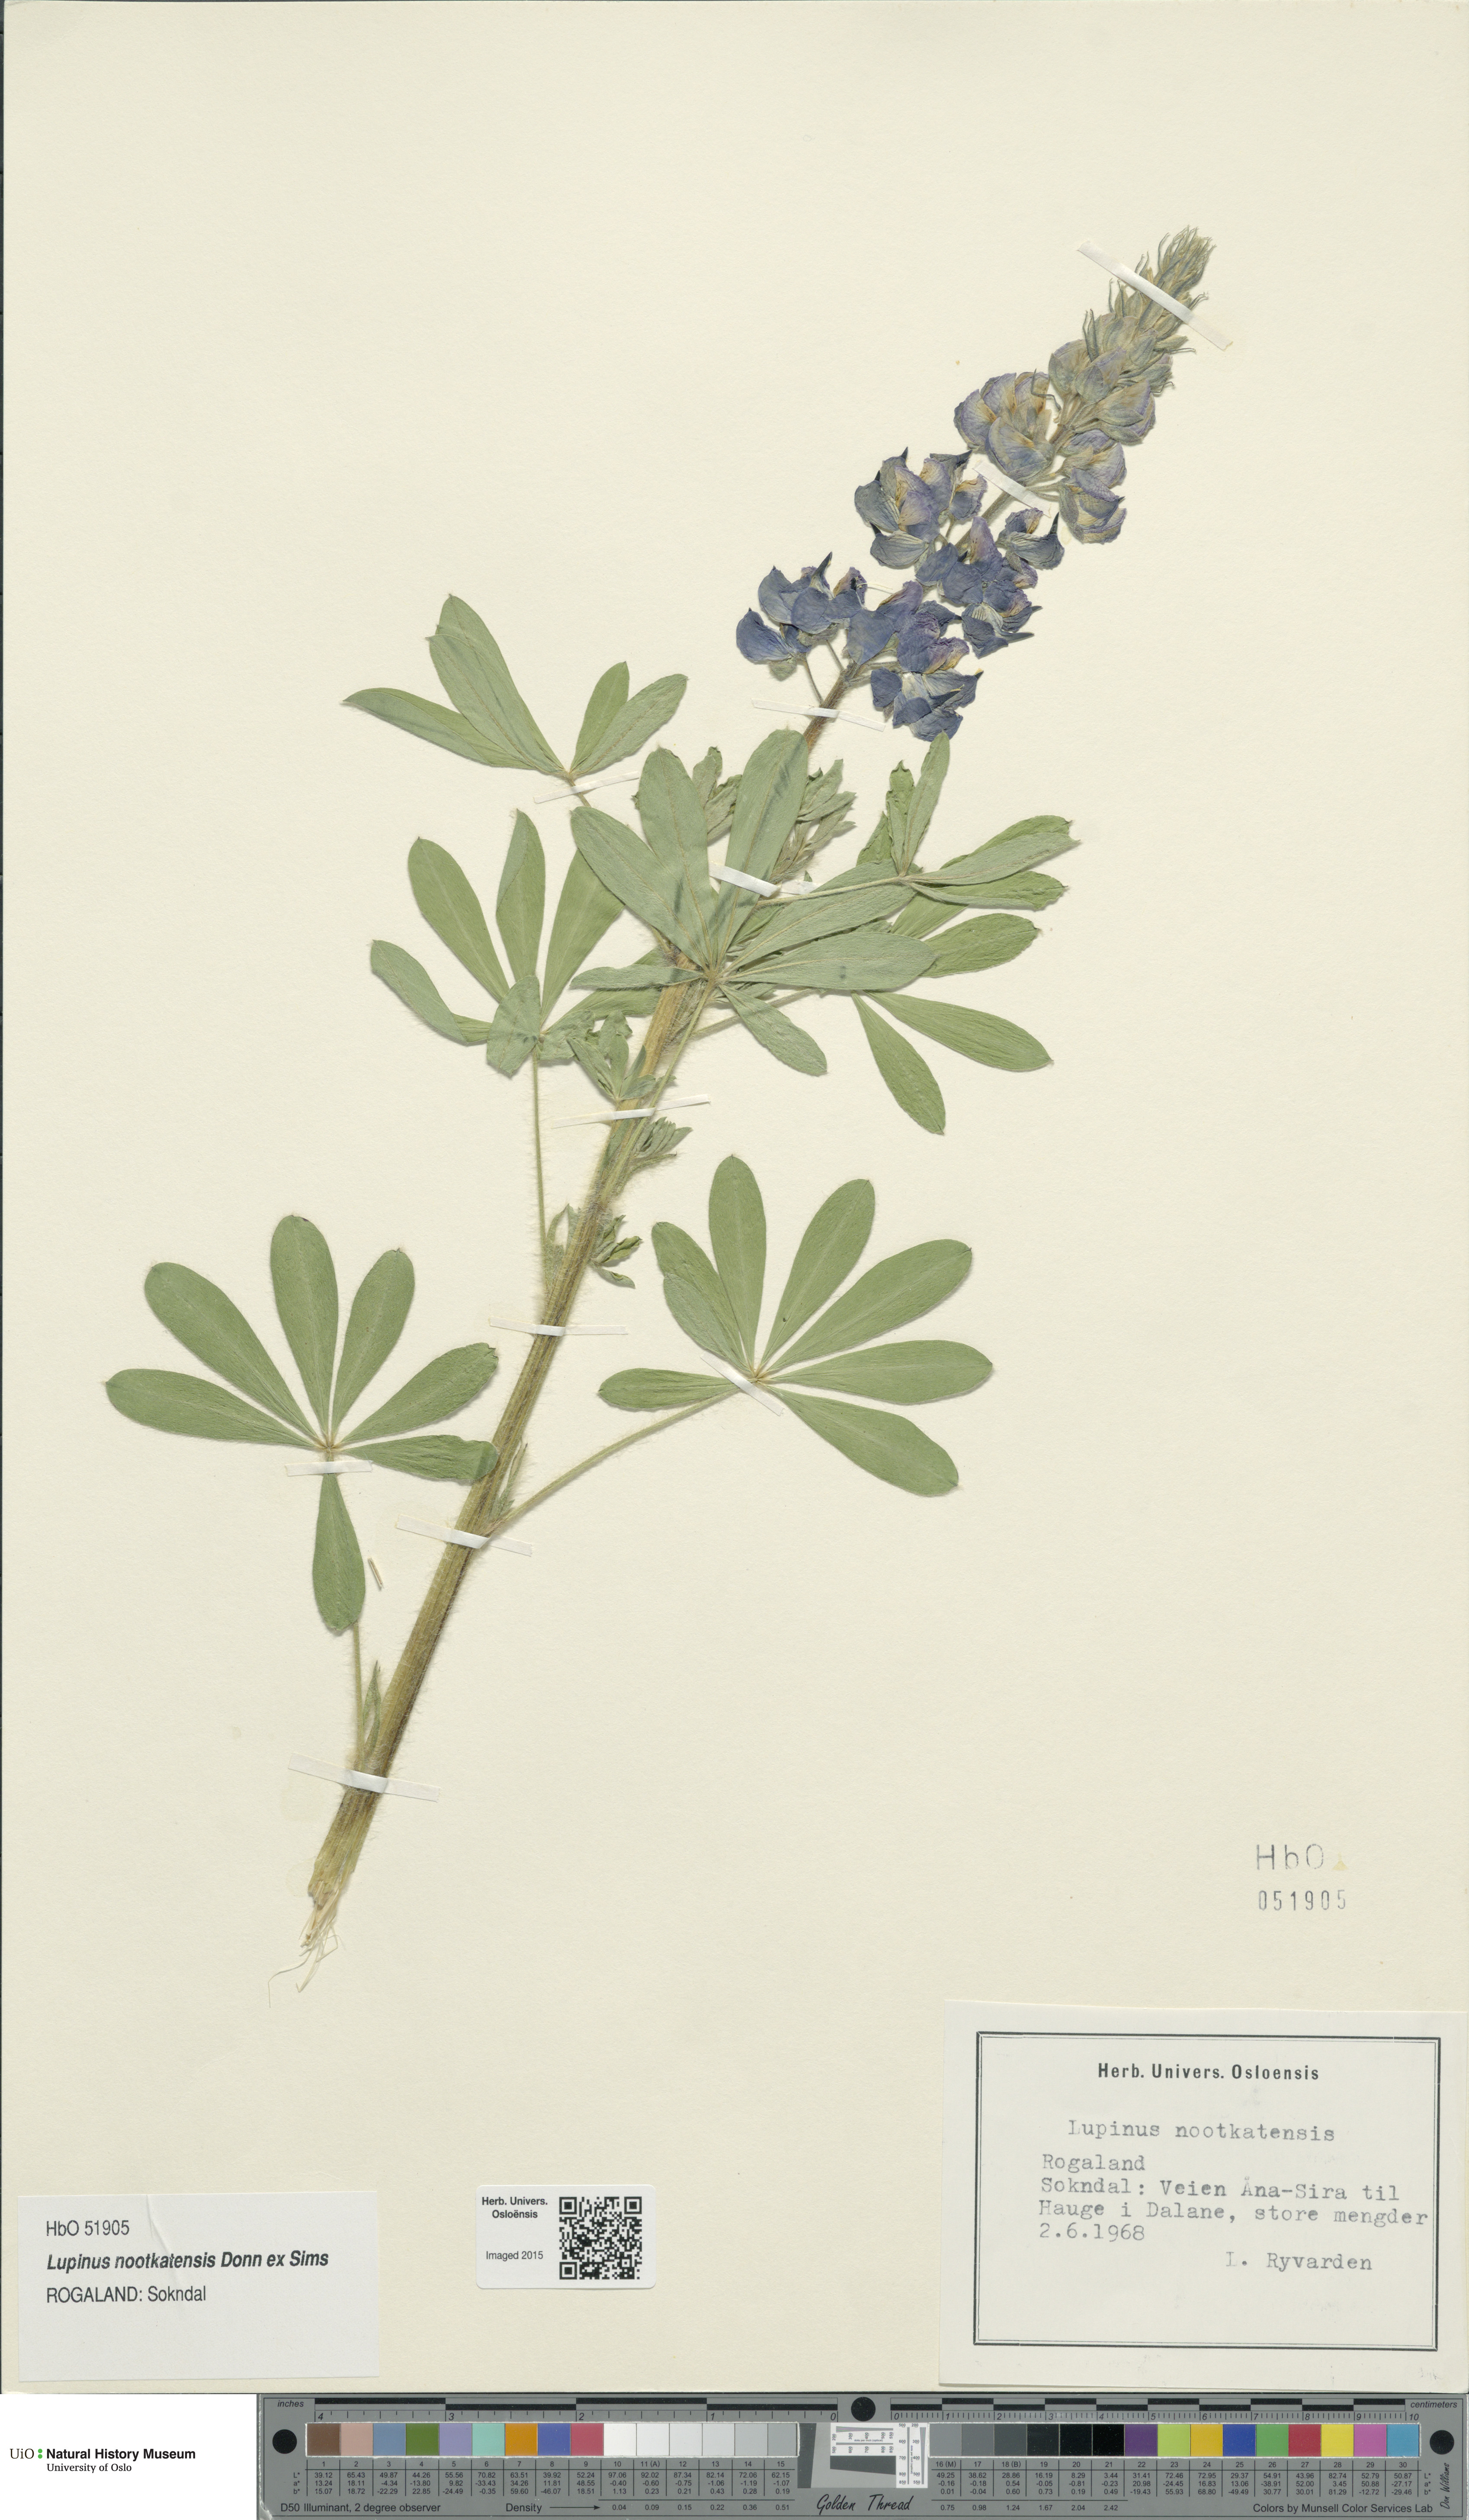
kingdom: Plantae
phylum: Tracheophyta
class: Magnoliopsida
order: Fabales
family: Fabaceae
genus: Lupinus
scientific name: Lupinus nootkatensis
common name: Nootka lupine
